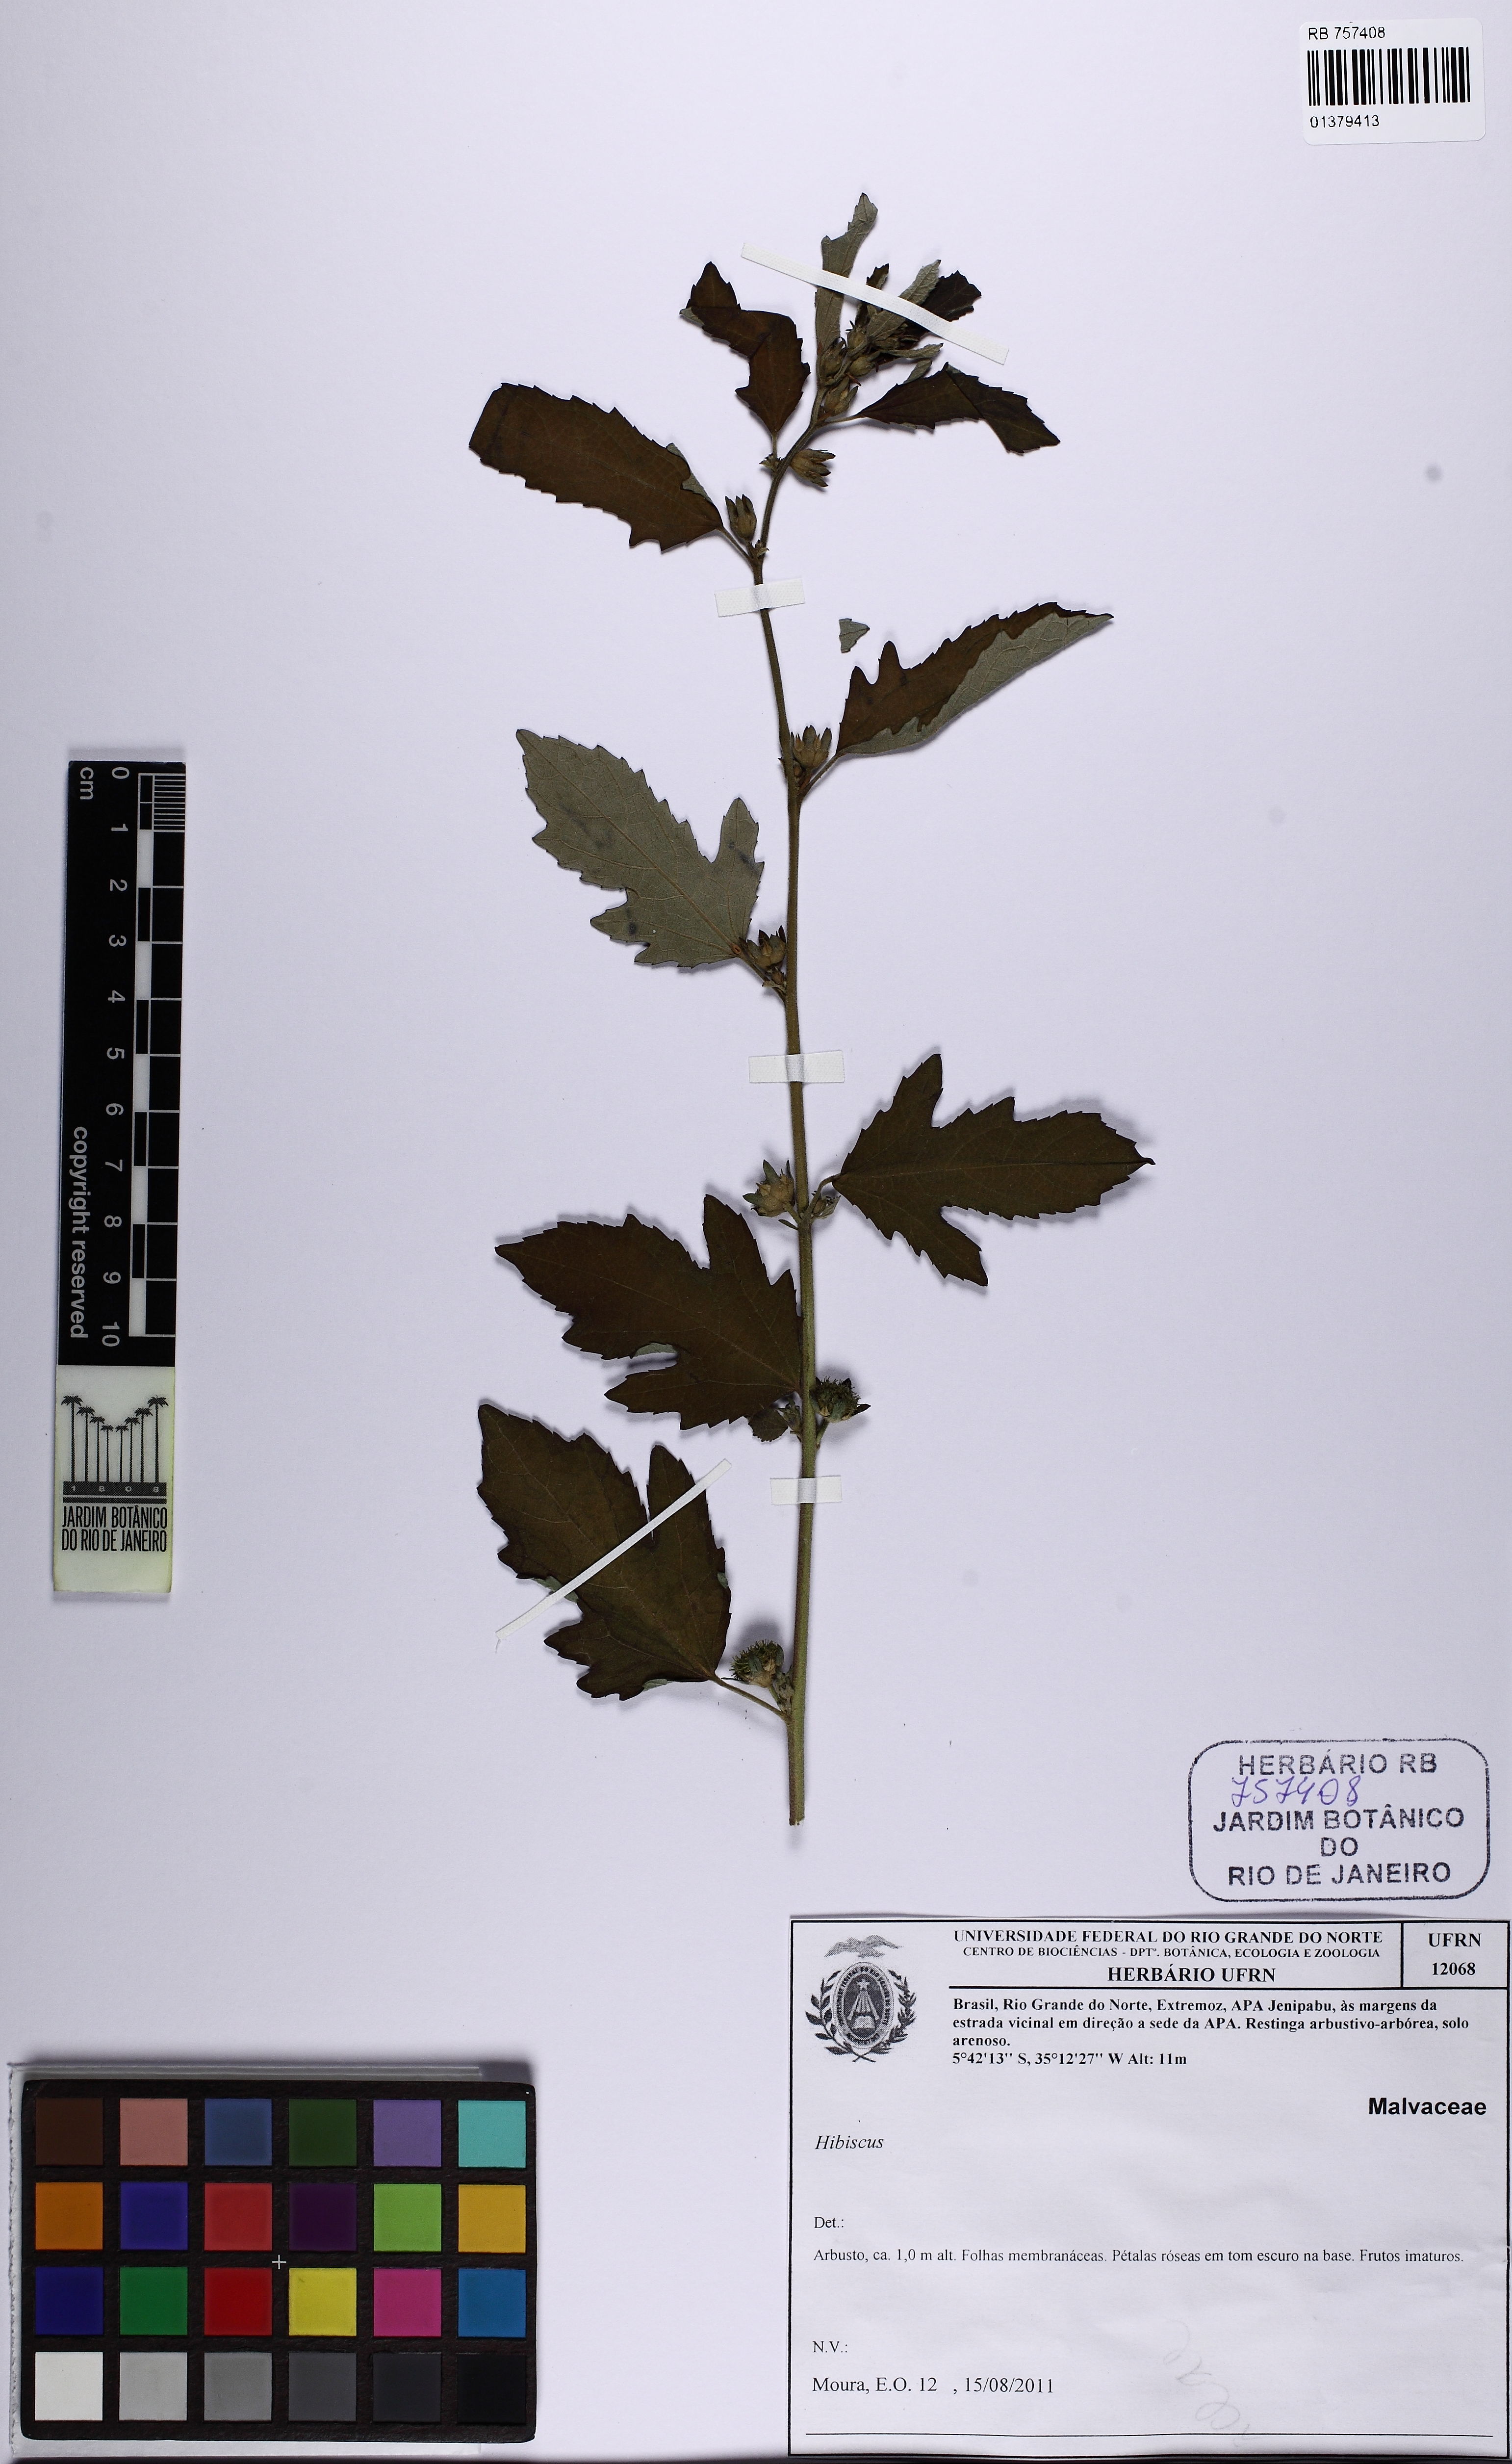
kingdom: Plantae
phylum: Tracheophyta
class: Magnoliopsida
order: Malvales
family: Malvaceae
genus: Urena
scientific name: Urena lobata
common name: Caesarweed
